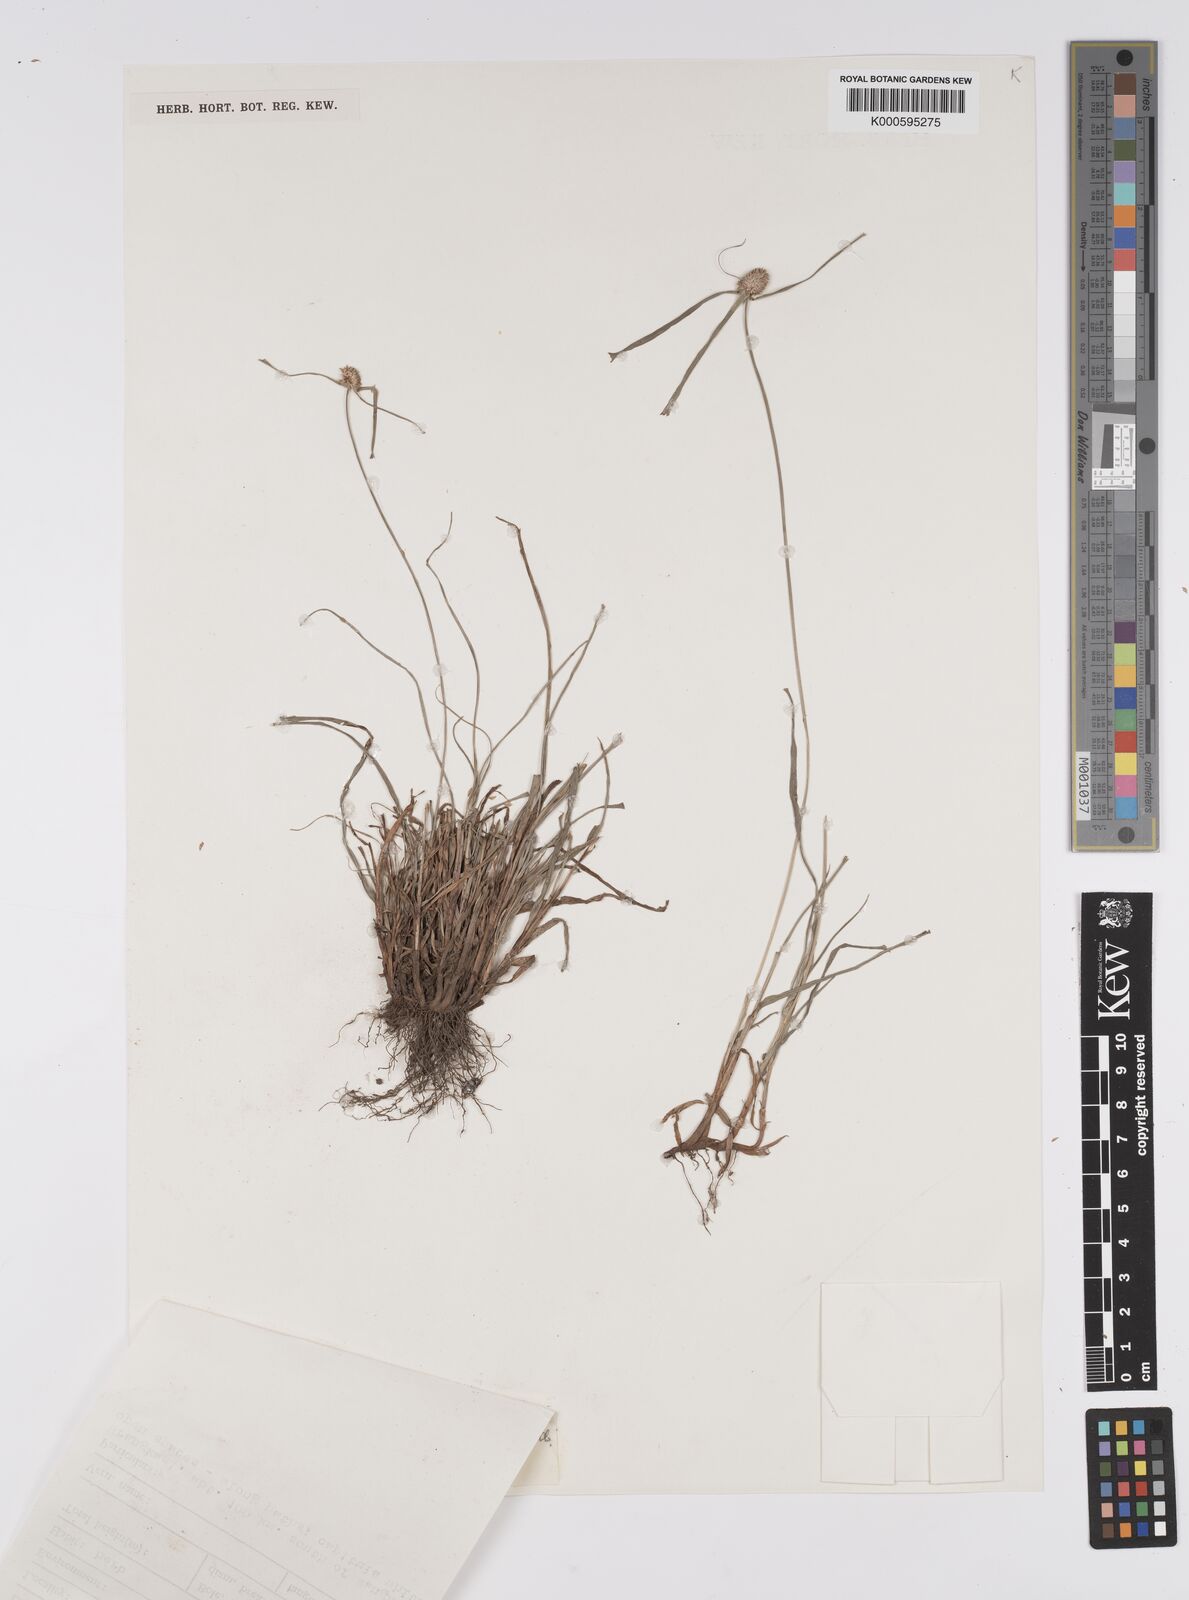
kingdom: Plantae
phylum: Tracheophyta
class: Liliopsida
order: Poales
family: Cyperaceae
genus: Cyperus
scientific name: Cyperus mindorensis
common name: Flatsedge
